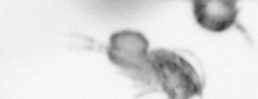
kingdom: Animalia
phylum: Arthropoda
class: Copepoda
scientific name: Copepoda
